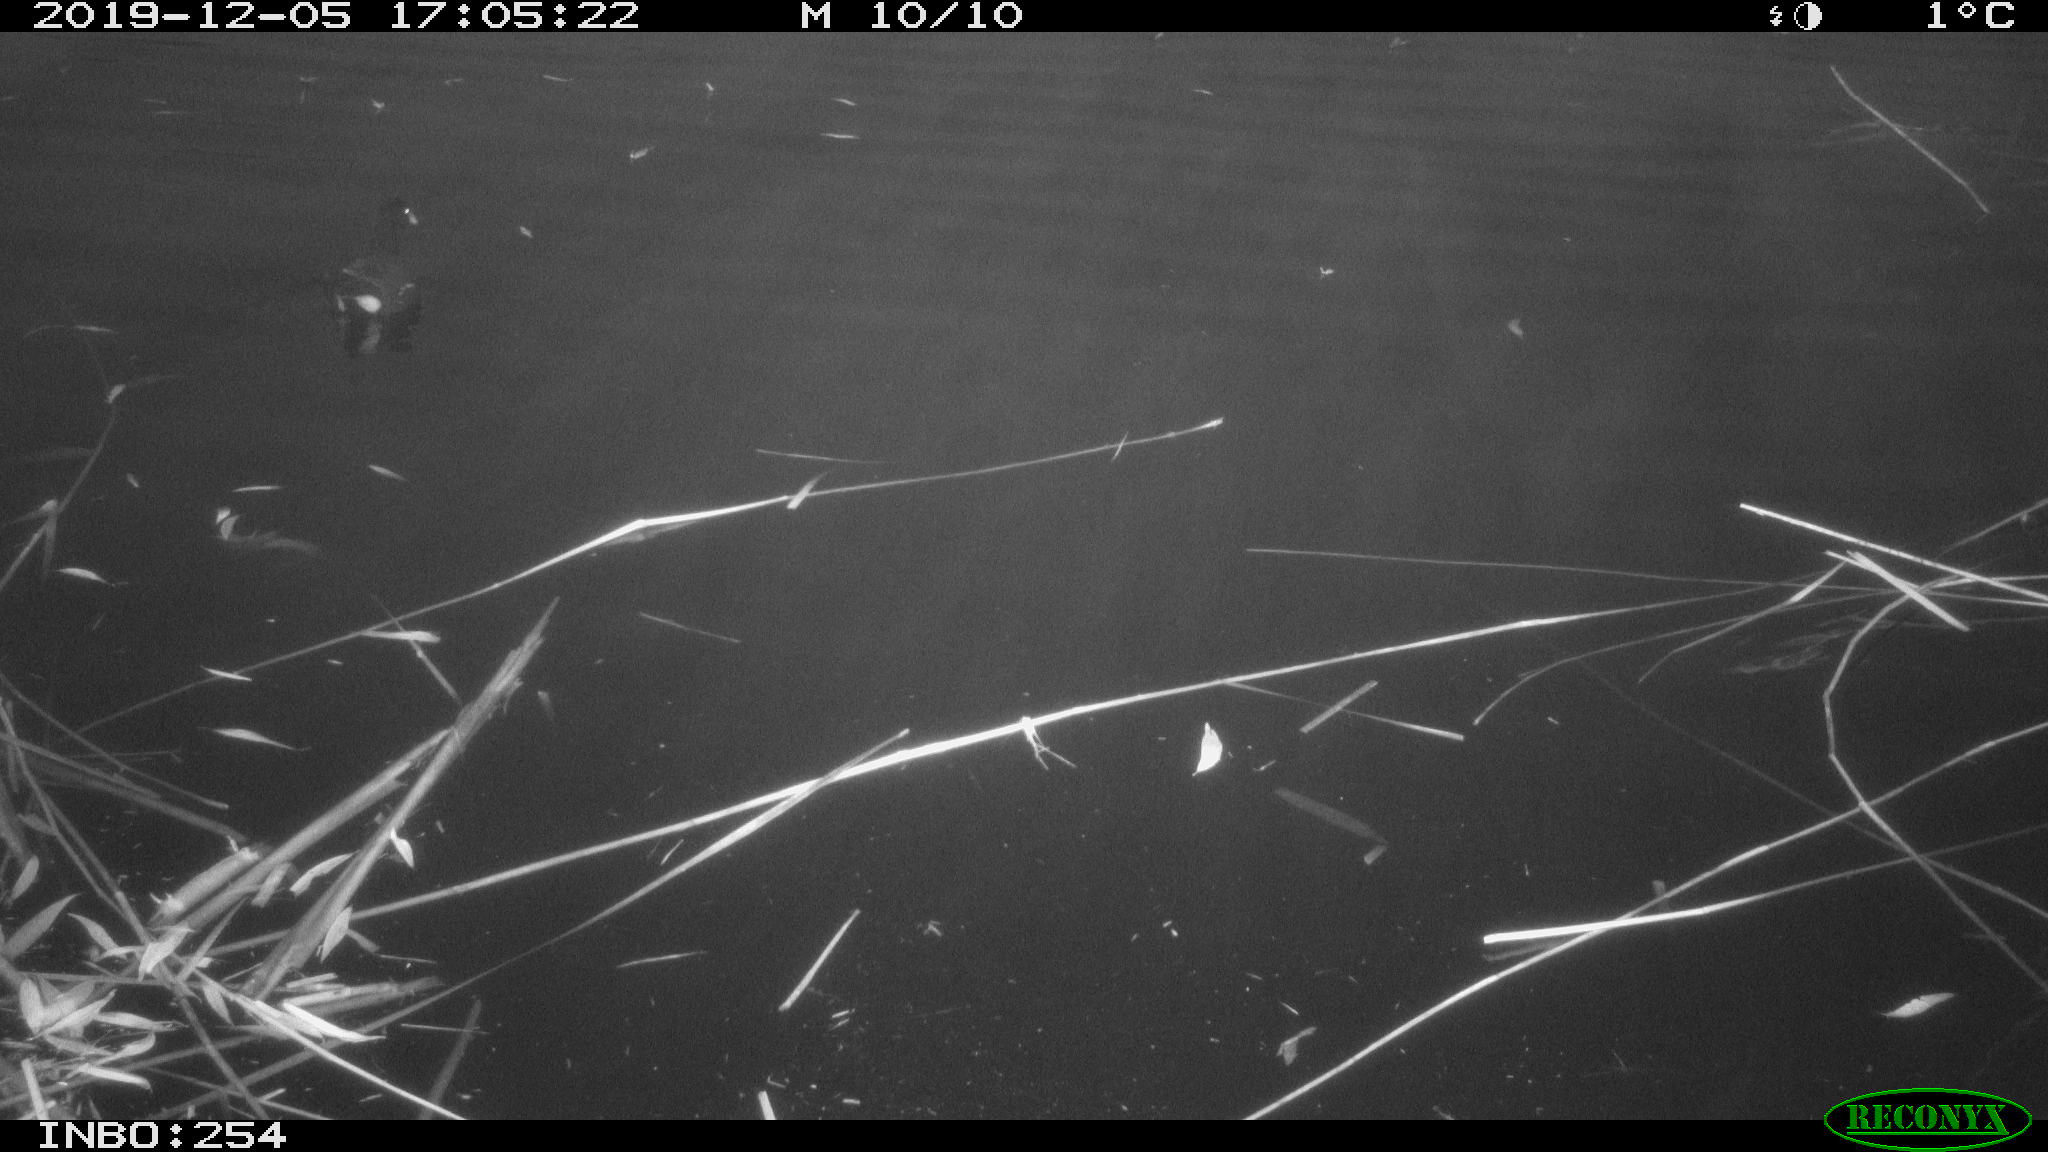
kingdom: Animalia
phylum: Chordata
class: Aves
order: Gruiformes
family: Rallidae
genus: Gallinula
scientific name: Gallinula chloropus
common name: Common moorhen
